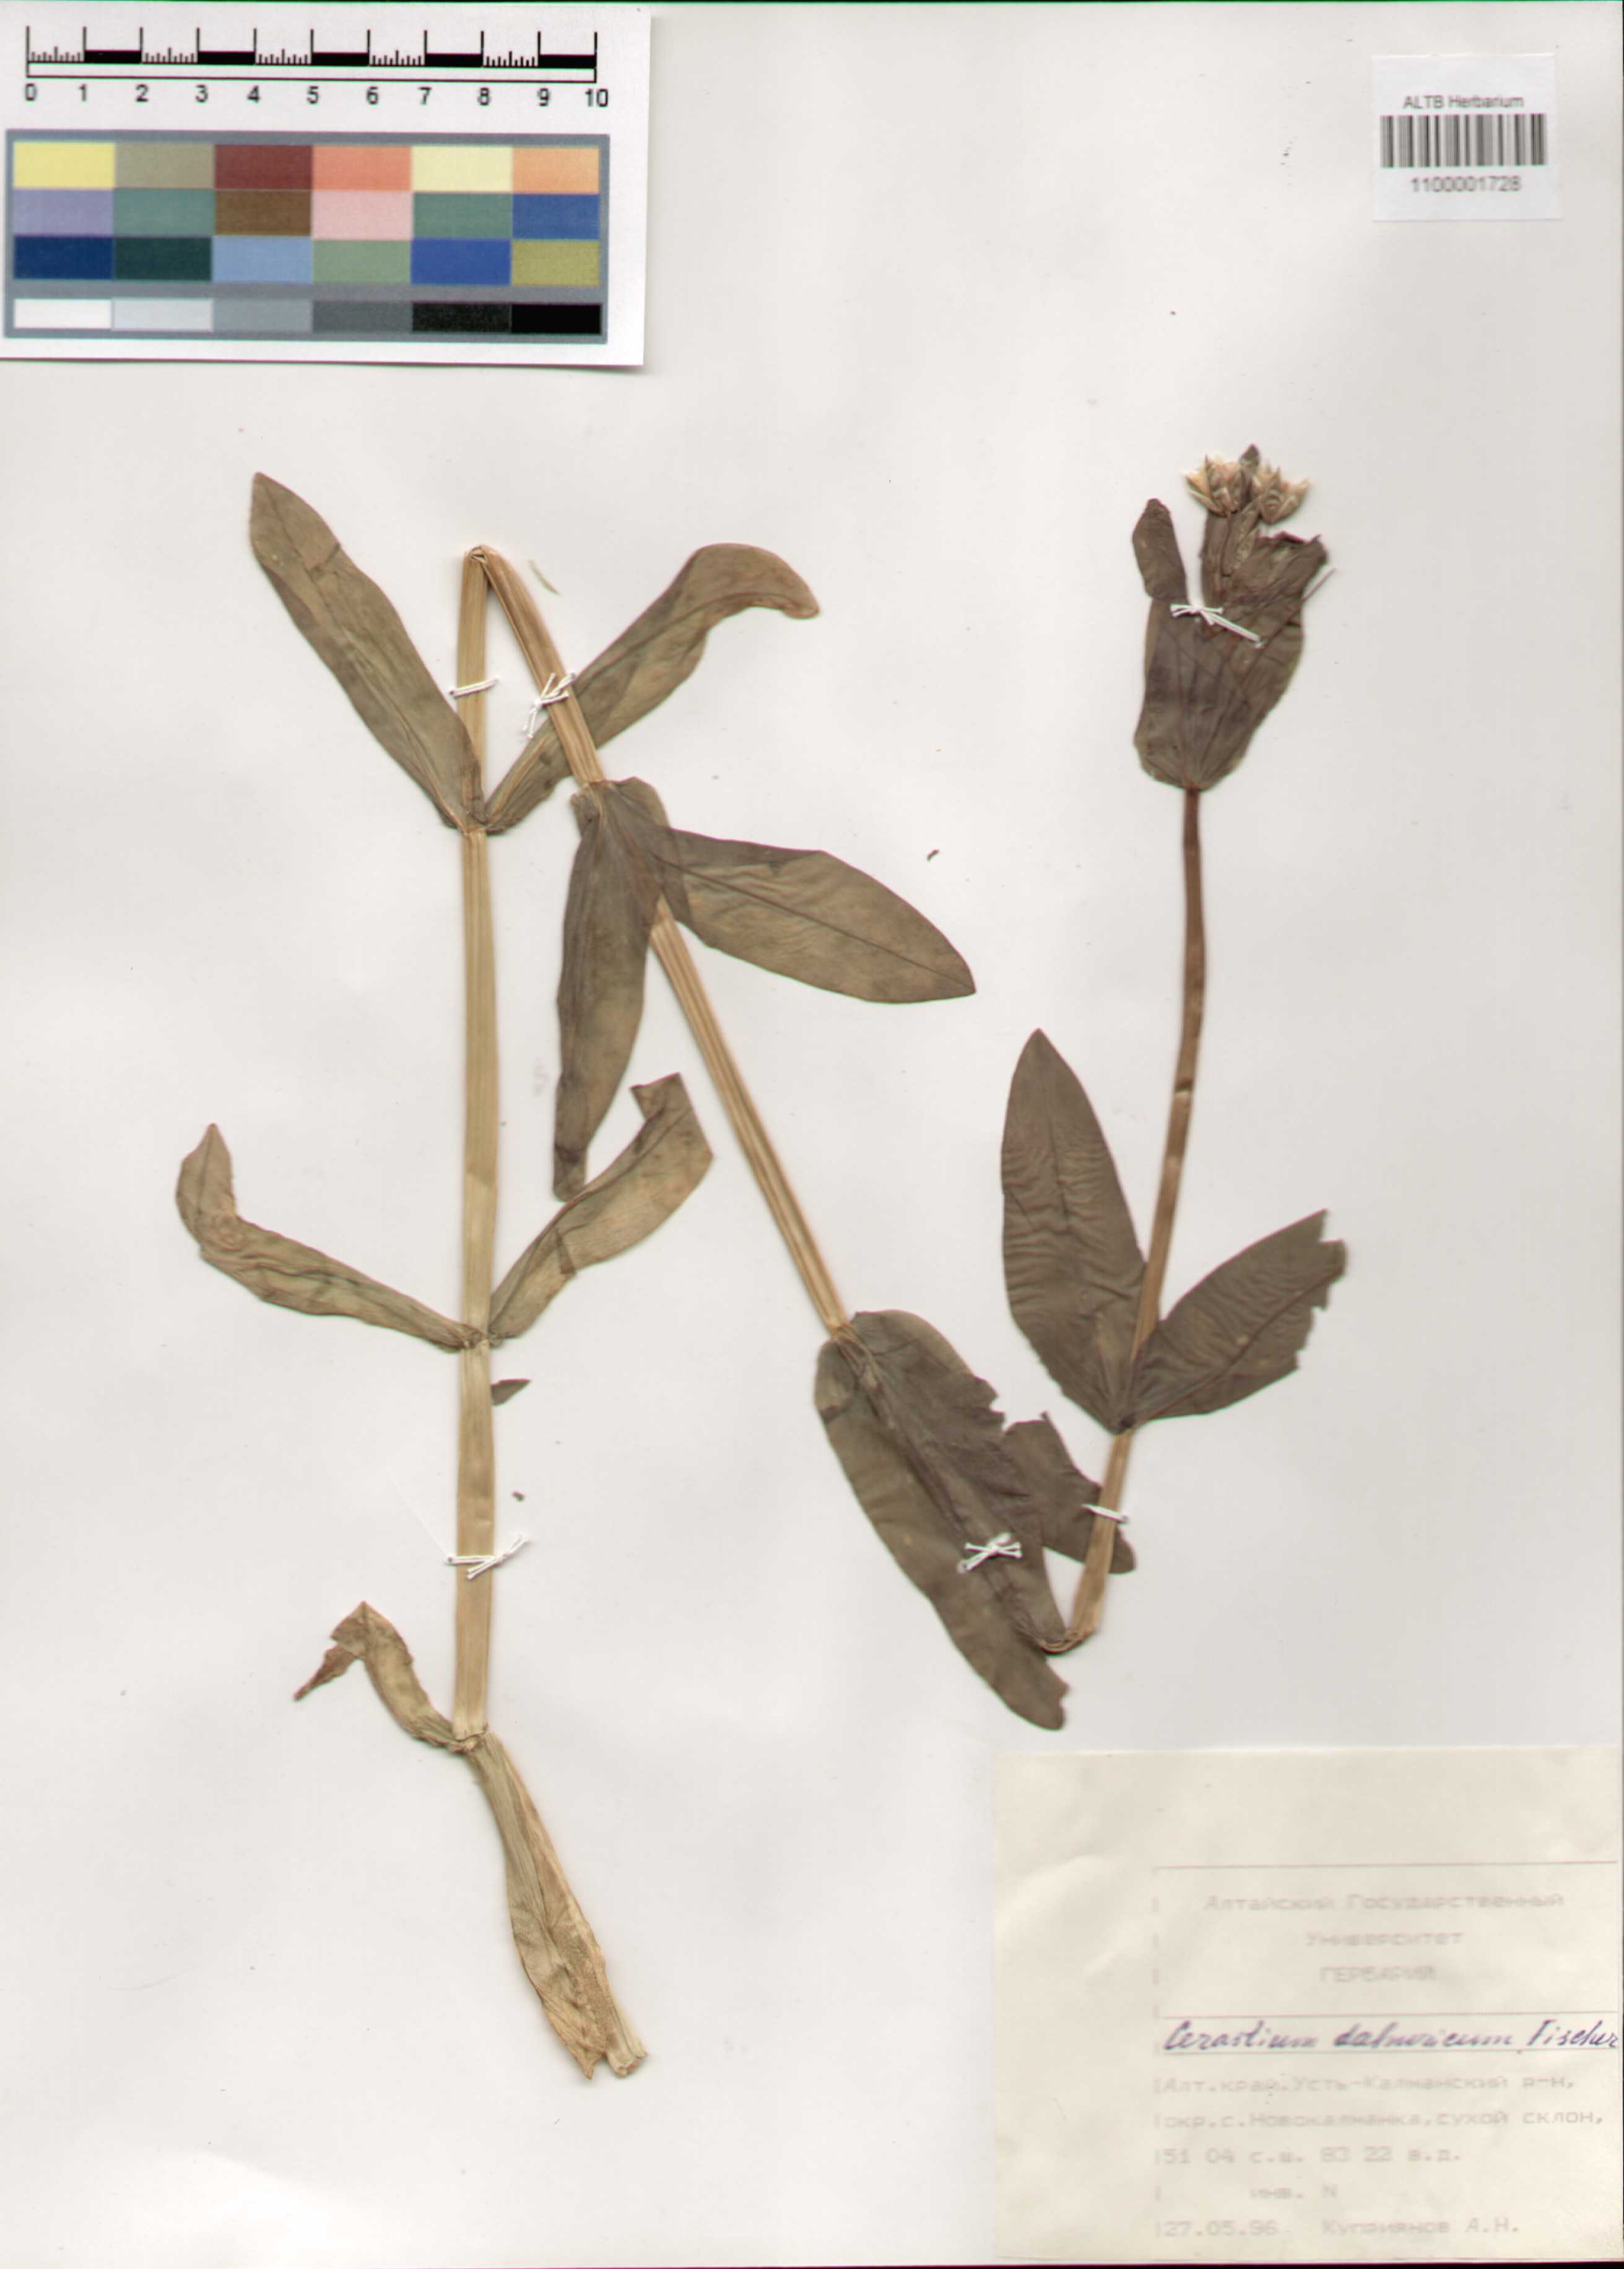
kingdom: Plantae
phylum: Tracheophyta
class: Magnoliopsida
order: Caryophyllales
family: Caryophyllaceae
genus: Dichodon
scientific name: Dichodon davuricum
